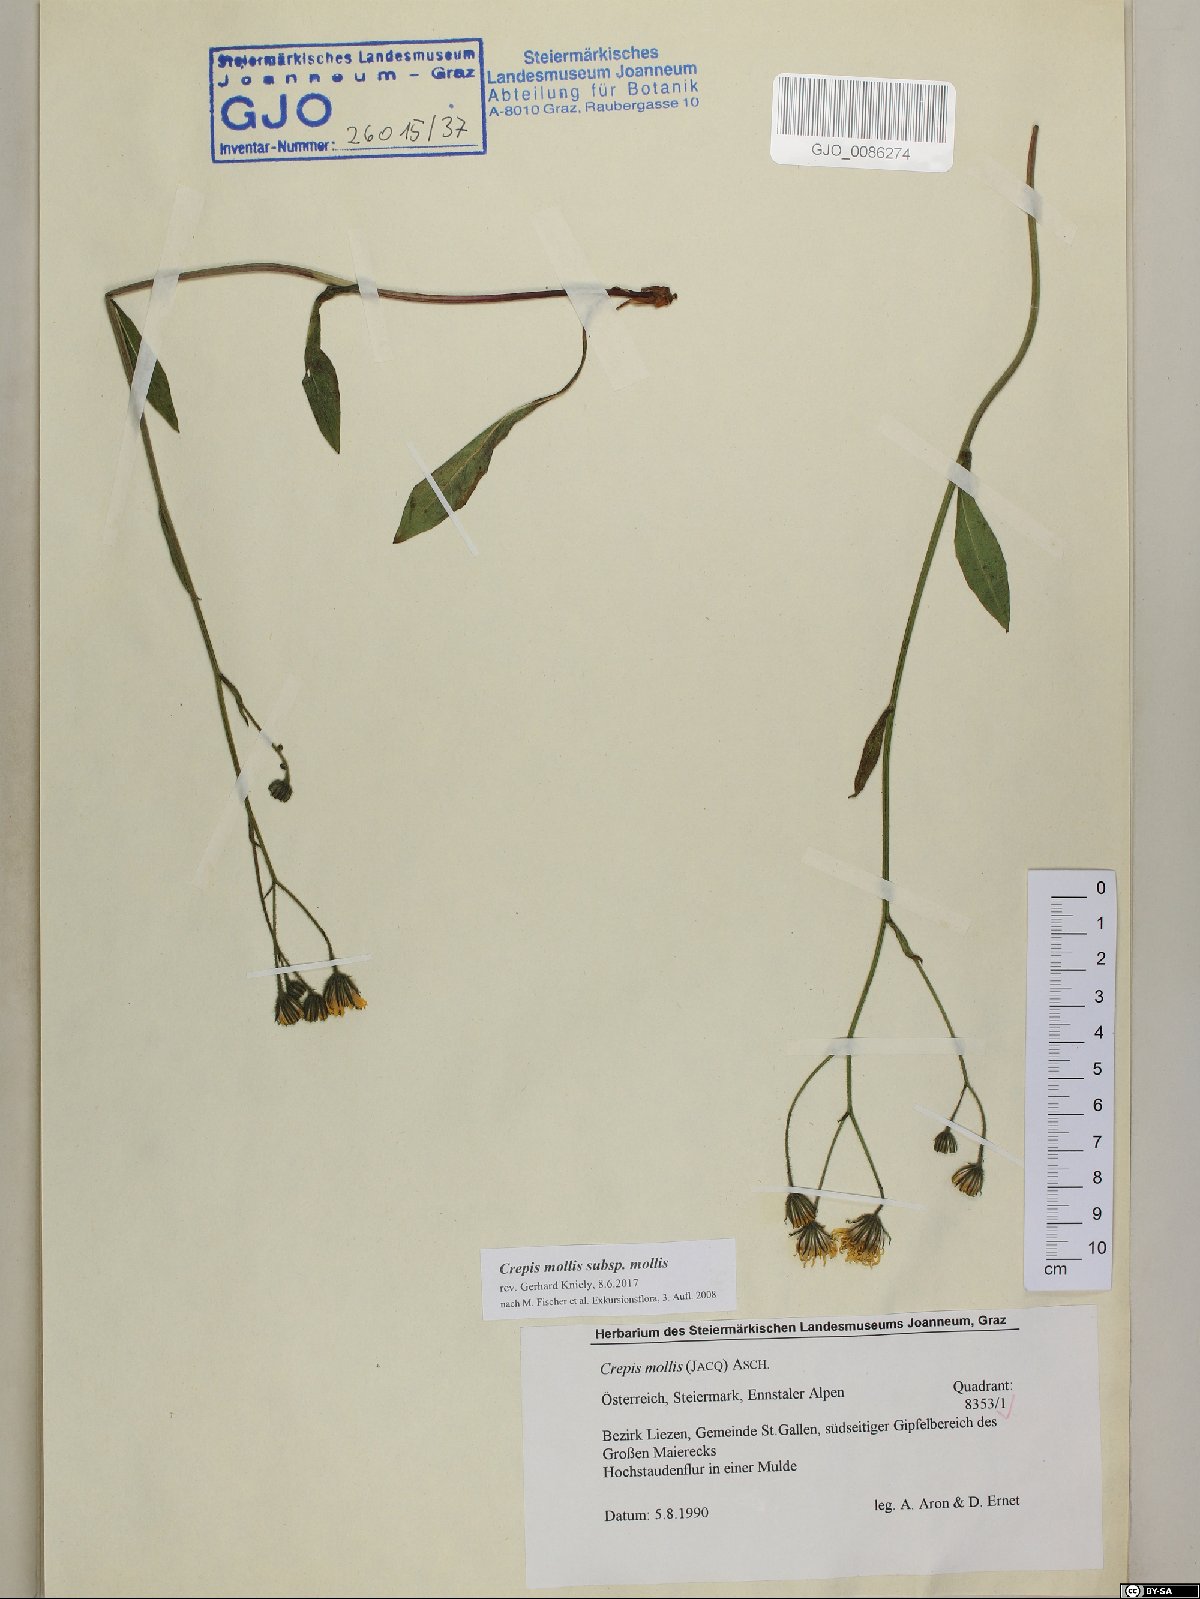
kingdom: Plantae
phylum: Tracheophyta
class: Magnoliopsida
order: Asterales
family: Asteraceae
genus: Crepis
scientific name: Crepis mollis
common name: Northern hawk's-beard
